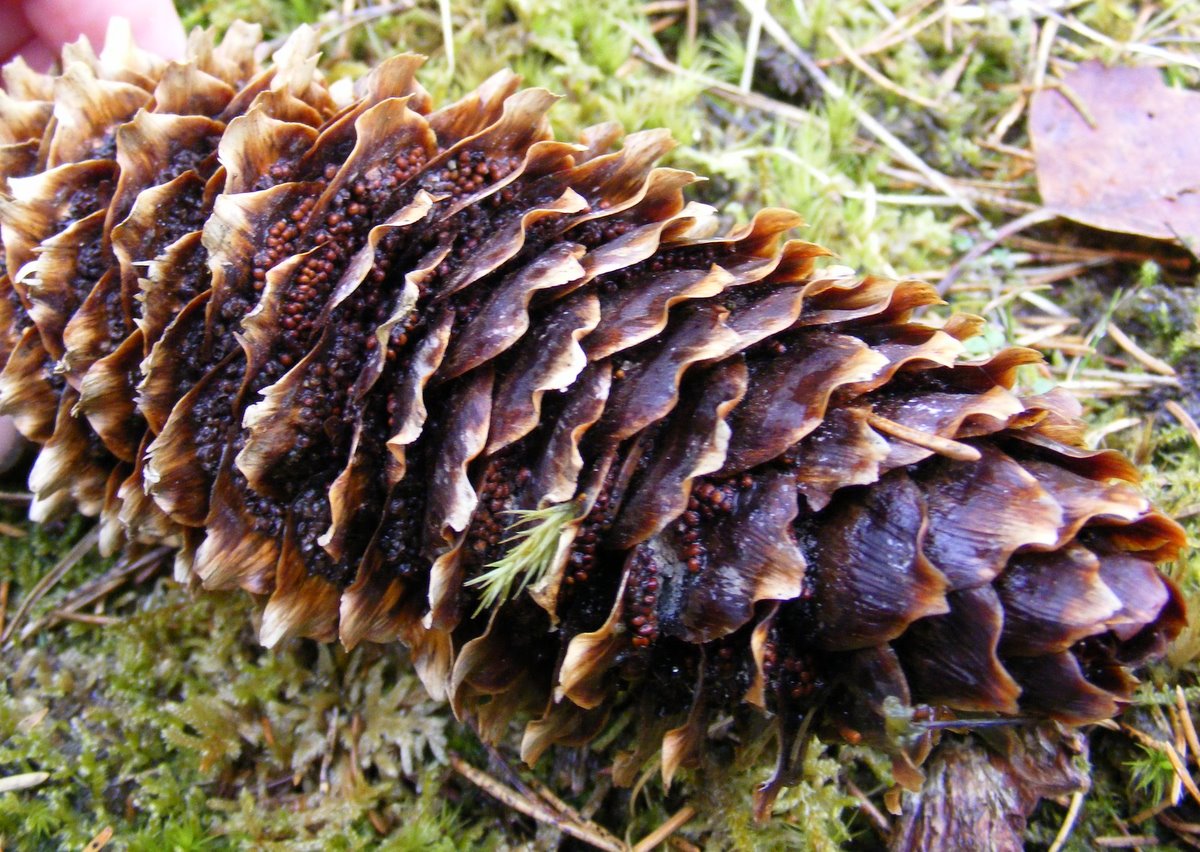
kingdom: Fungi
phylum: Basidiomycota
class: Pucciniomycetes
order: Pucciniales
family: Pucciniastraceae
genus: Thekopsora
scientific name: Thekopsora areolata
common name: grankogle-nålerust
